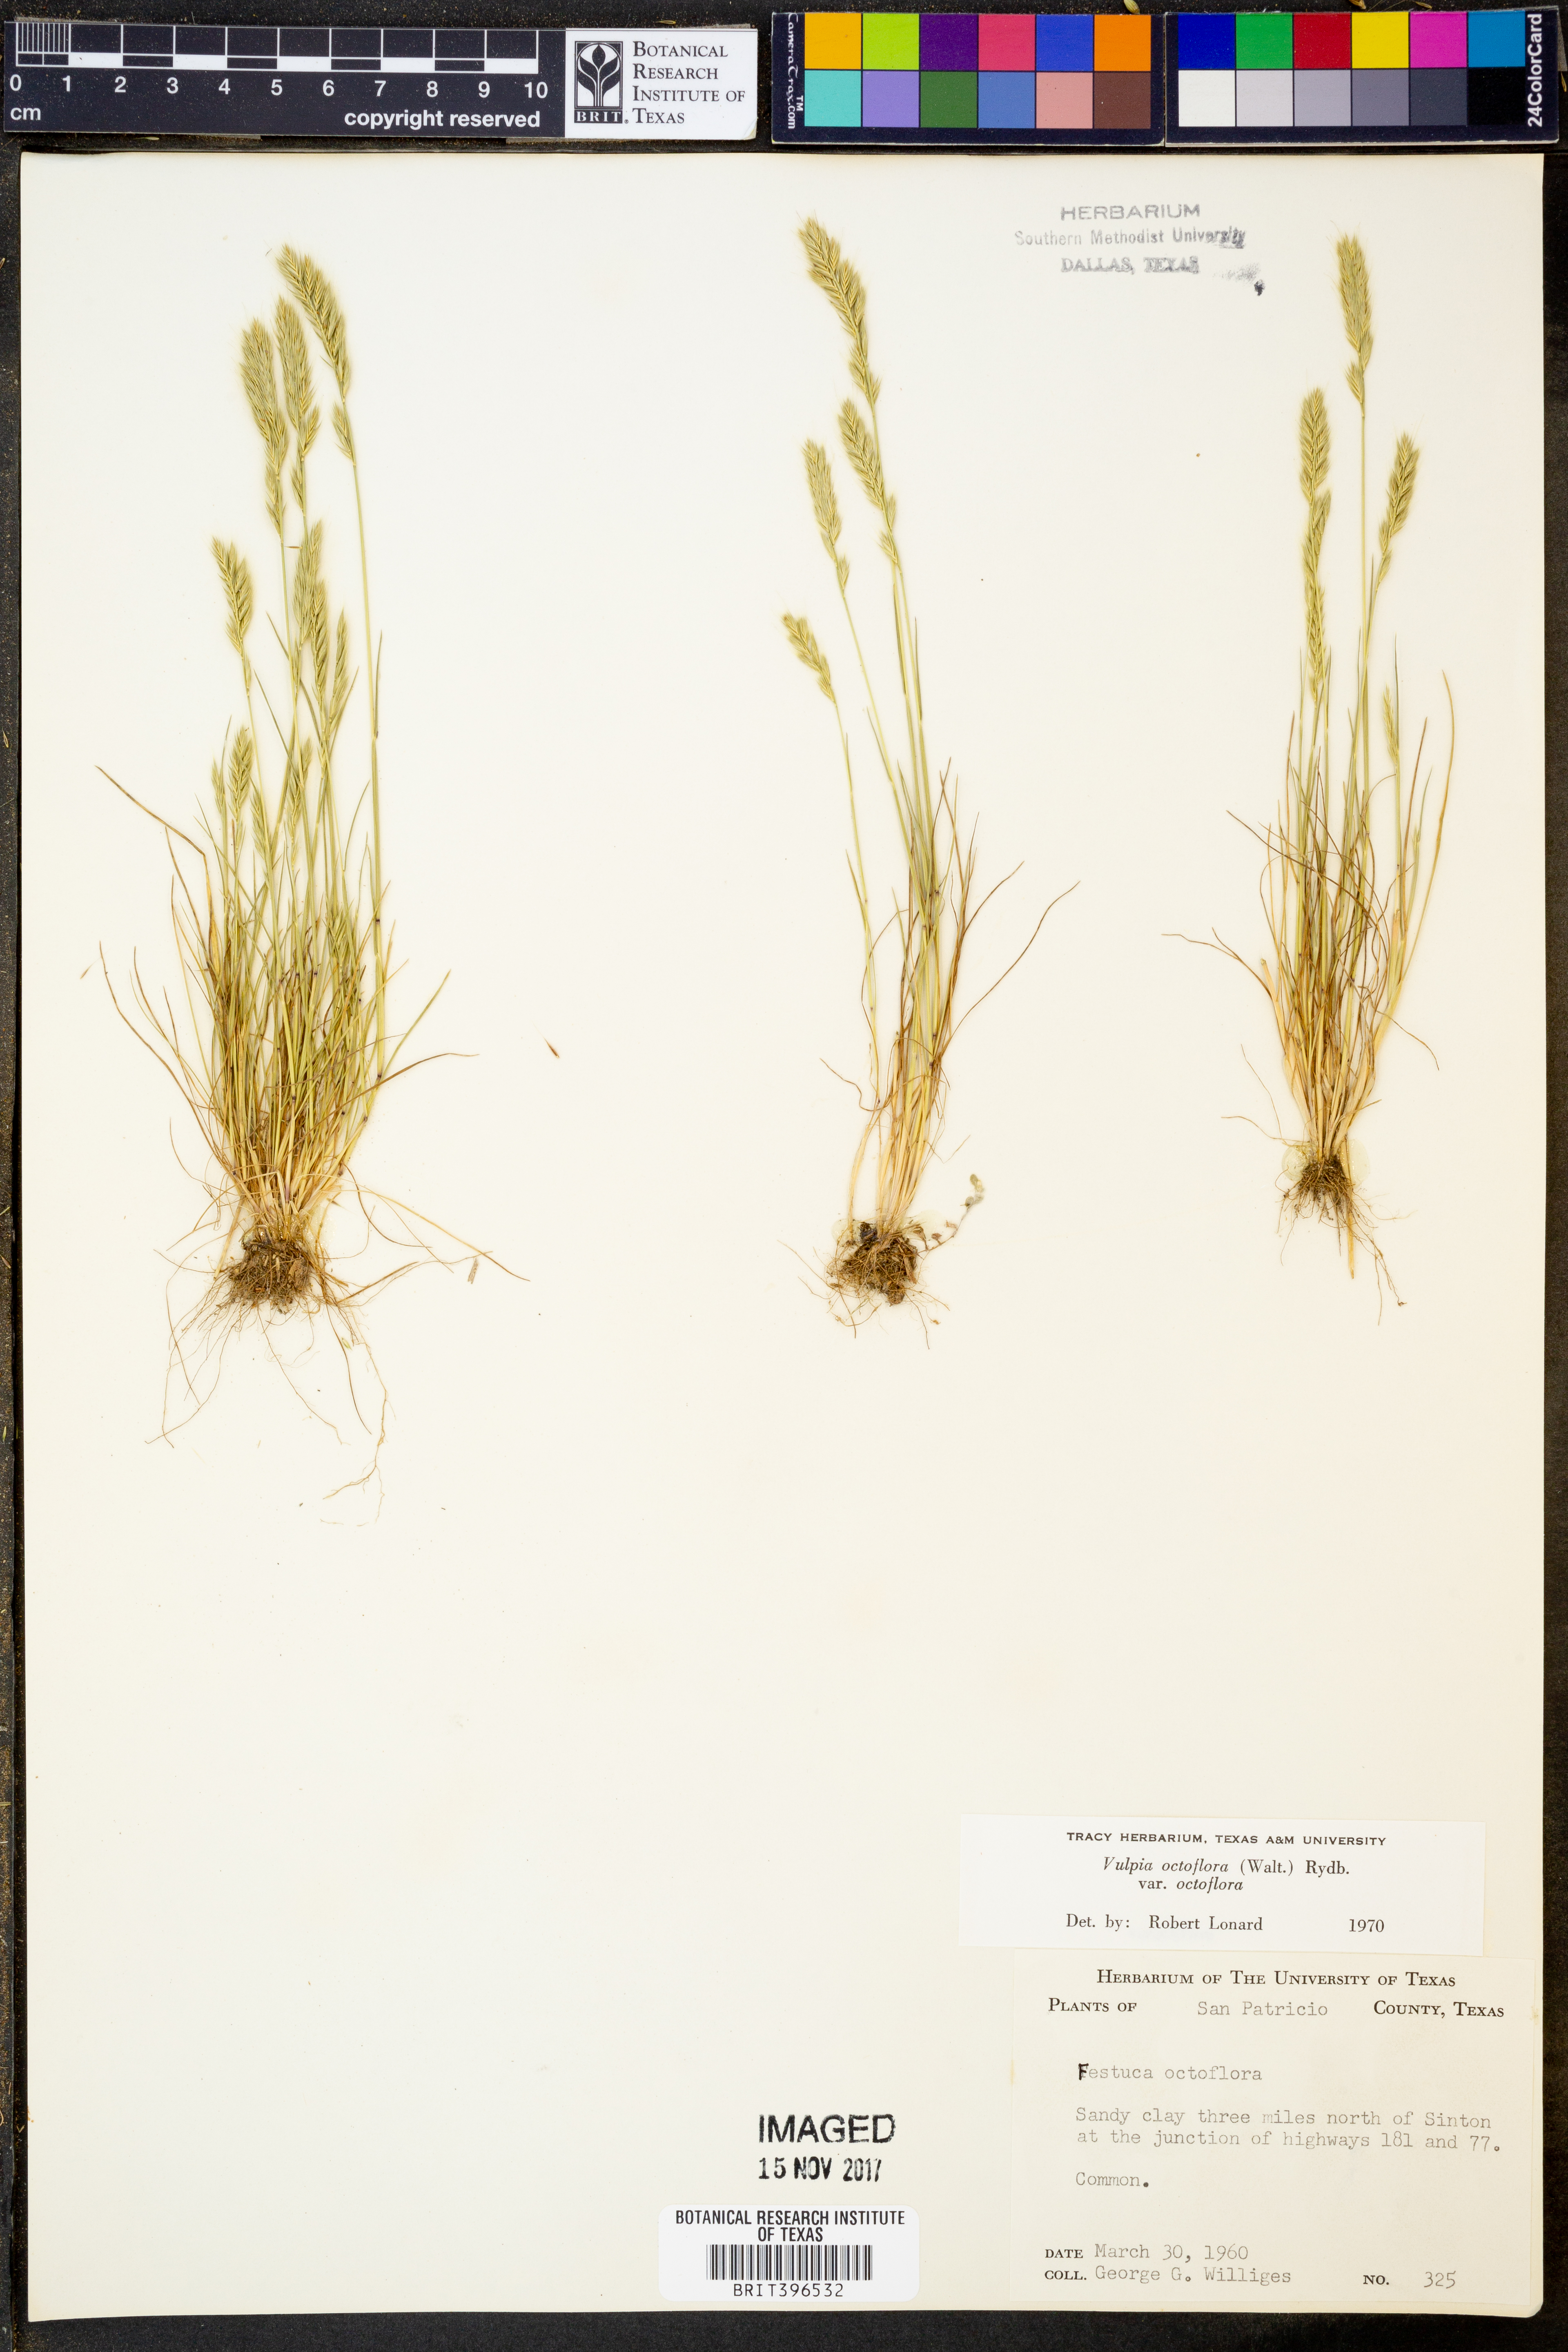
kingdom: Plantae
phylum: Tracheophyta
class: Liliopsida
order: Poales
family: Poaceae
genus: Festuca
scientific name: Festuca octoflora
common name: Sixweeks grass
